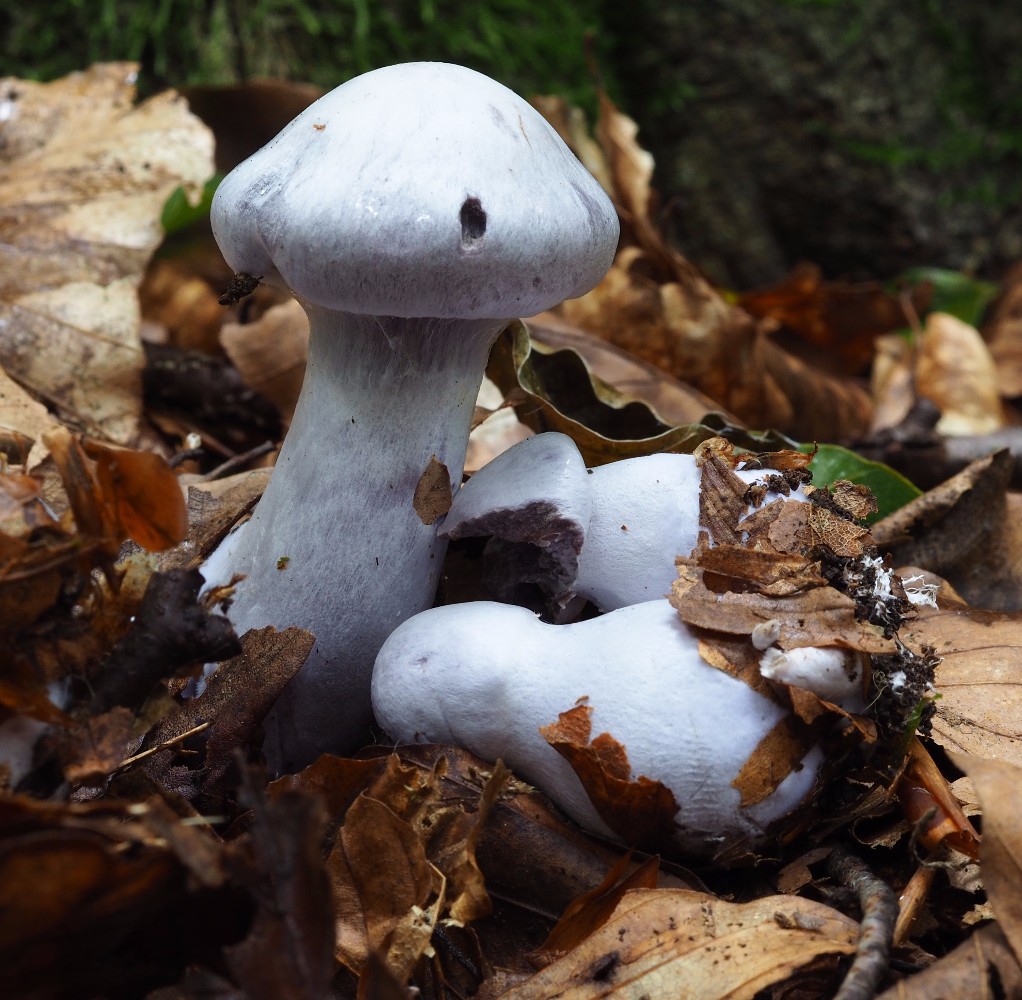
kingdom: Fungi
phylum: Basidiomycota
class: Agaricomycetes
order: Agaricales
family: Cortinariaceae
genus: Cortinarius
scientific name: Cortinarius alboviolaceus
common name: lysviolet slørhat
